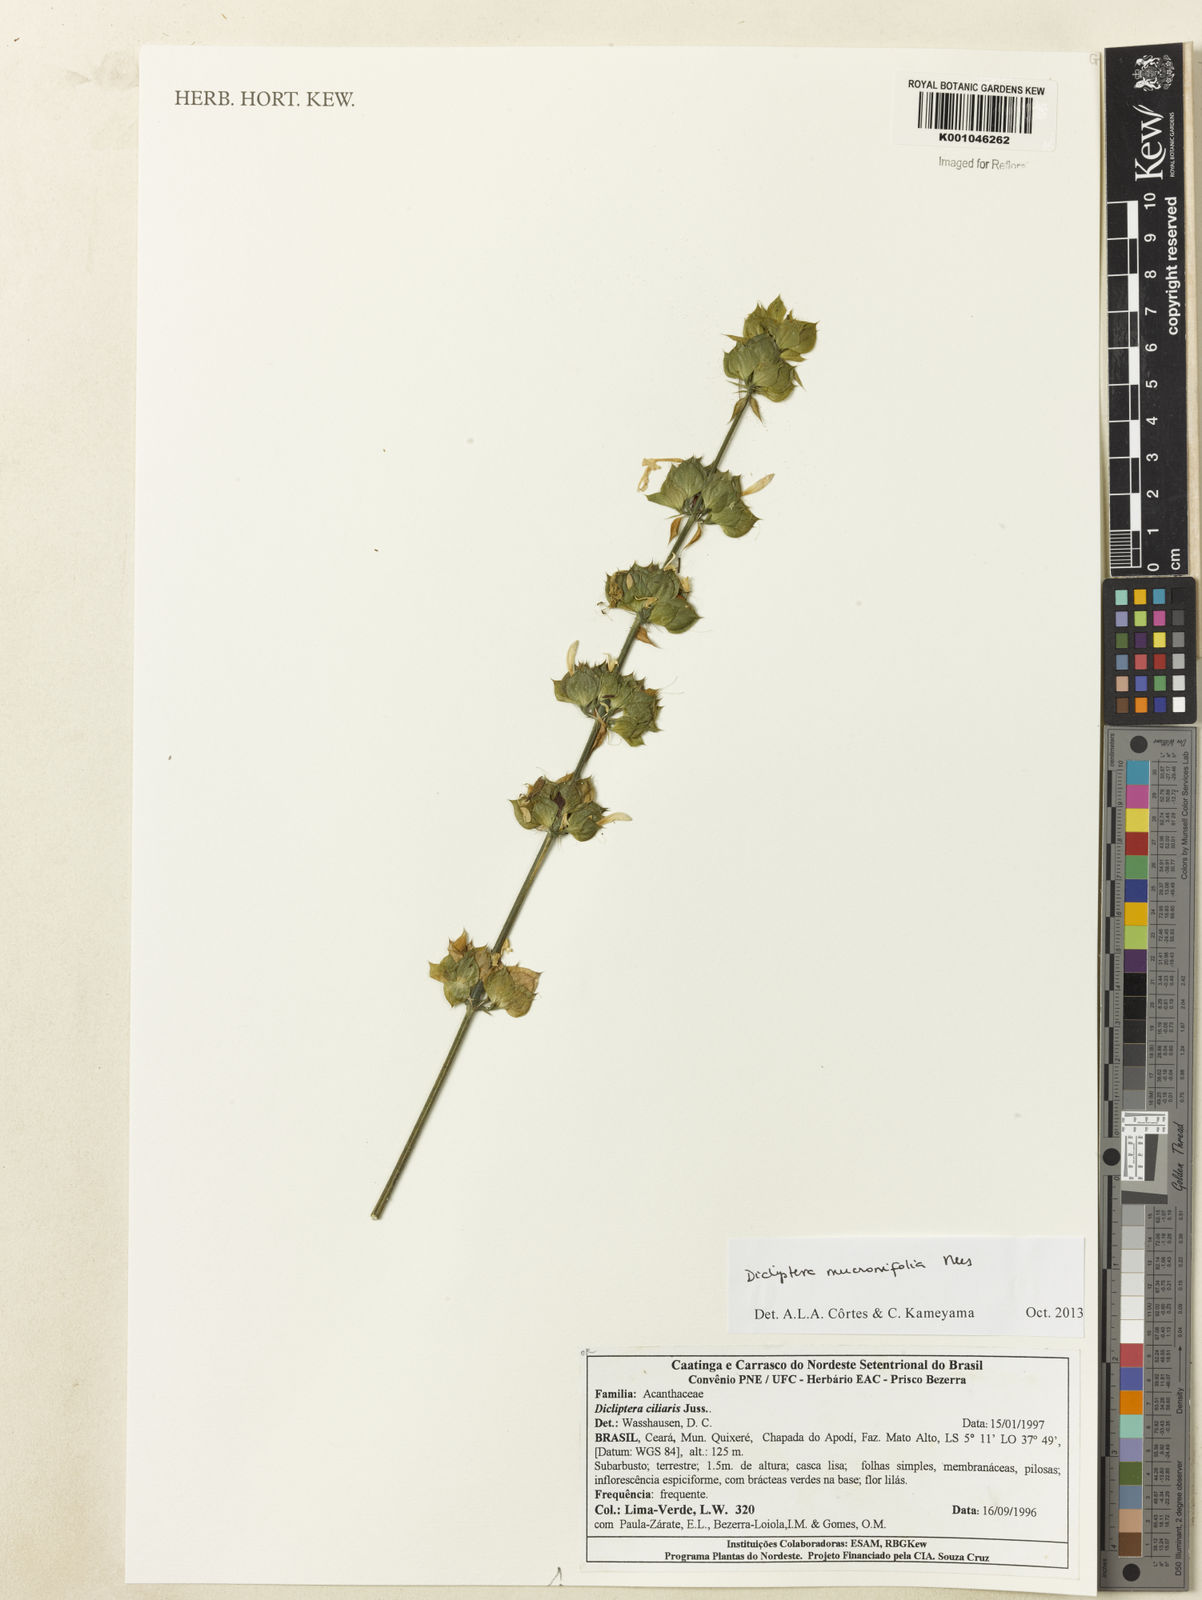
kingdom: Plantae
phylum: Tracheophyta
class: Magnoliopsida
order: Lamiales
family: Acanthaceae
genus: Dicliptera
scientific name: Dicliptera mucronifolia
